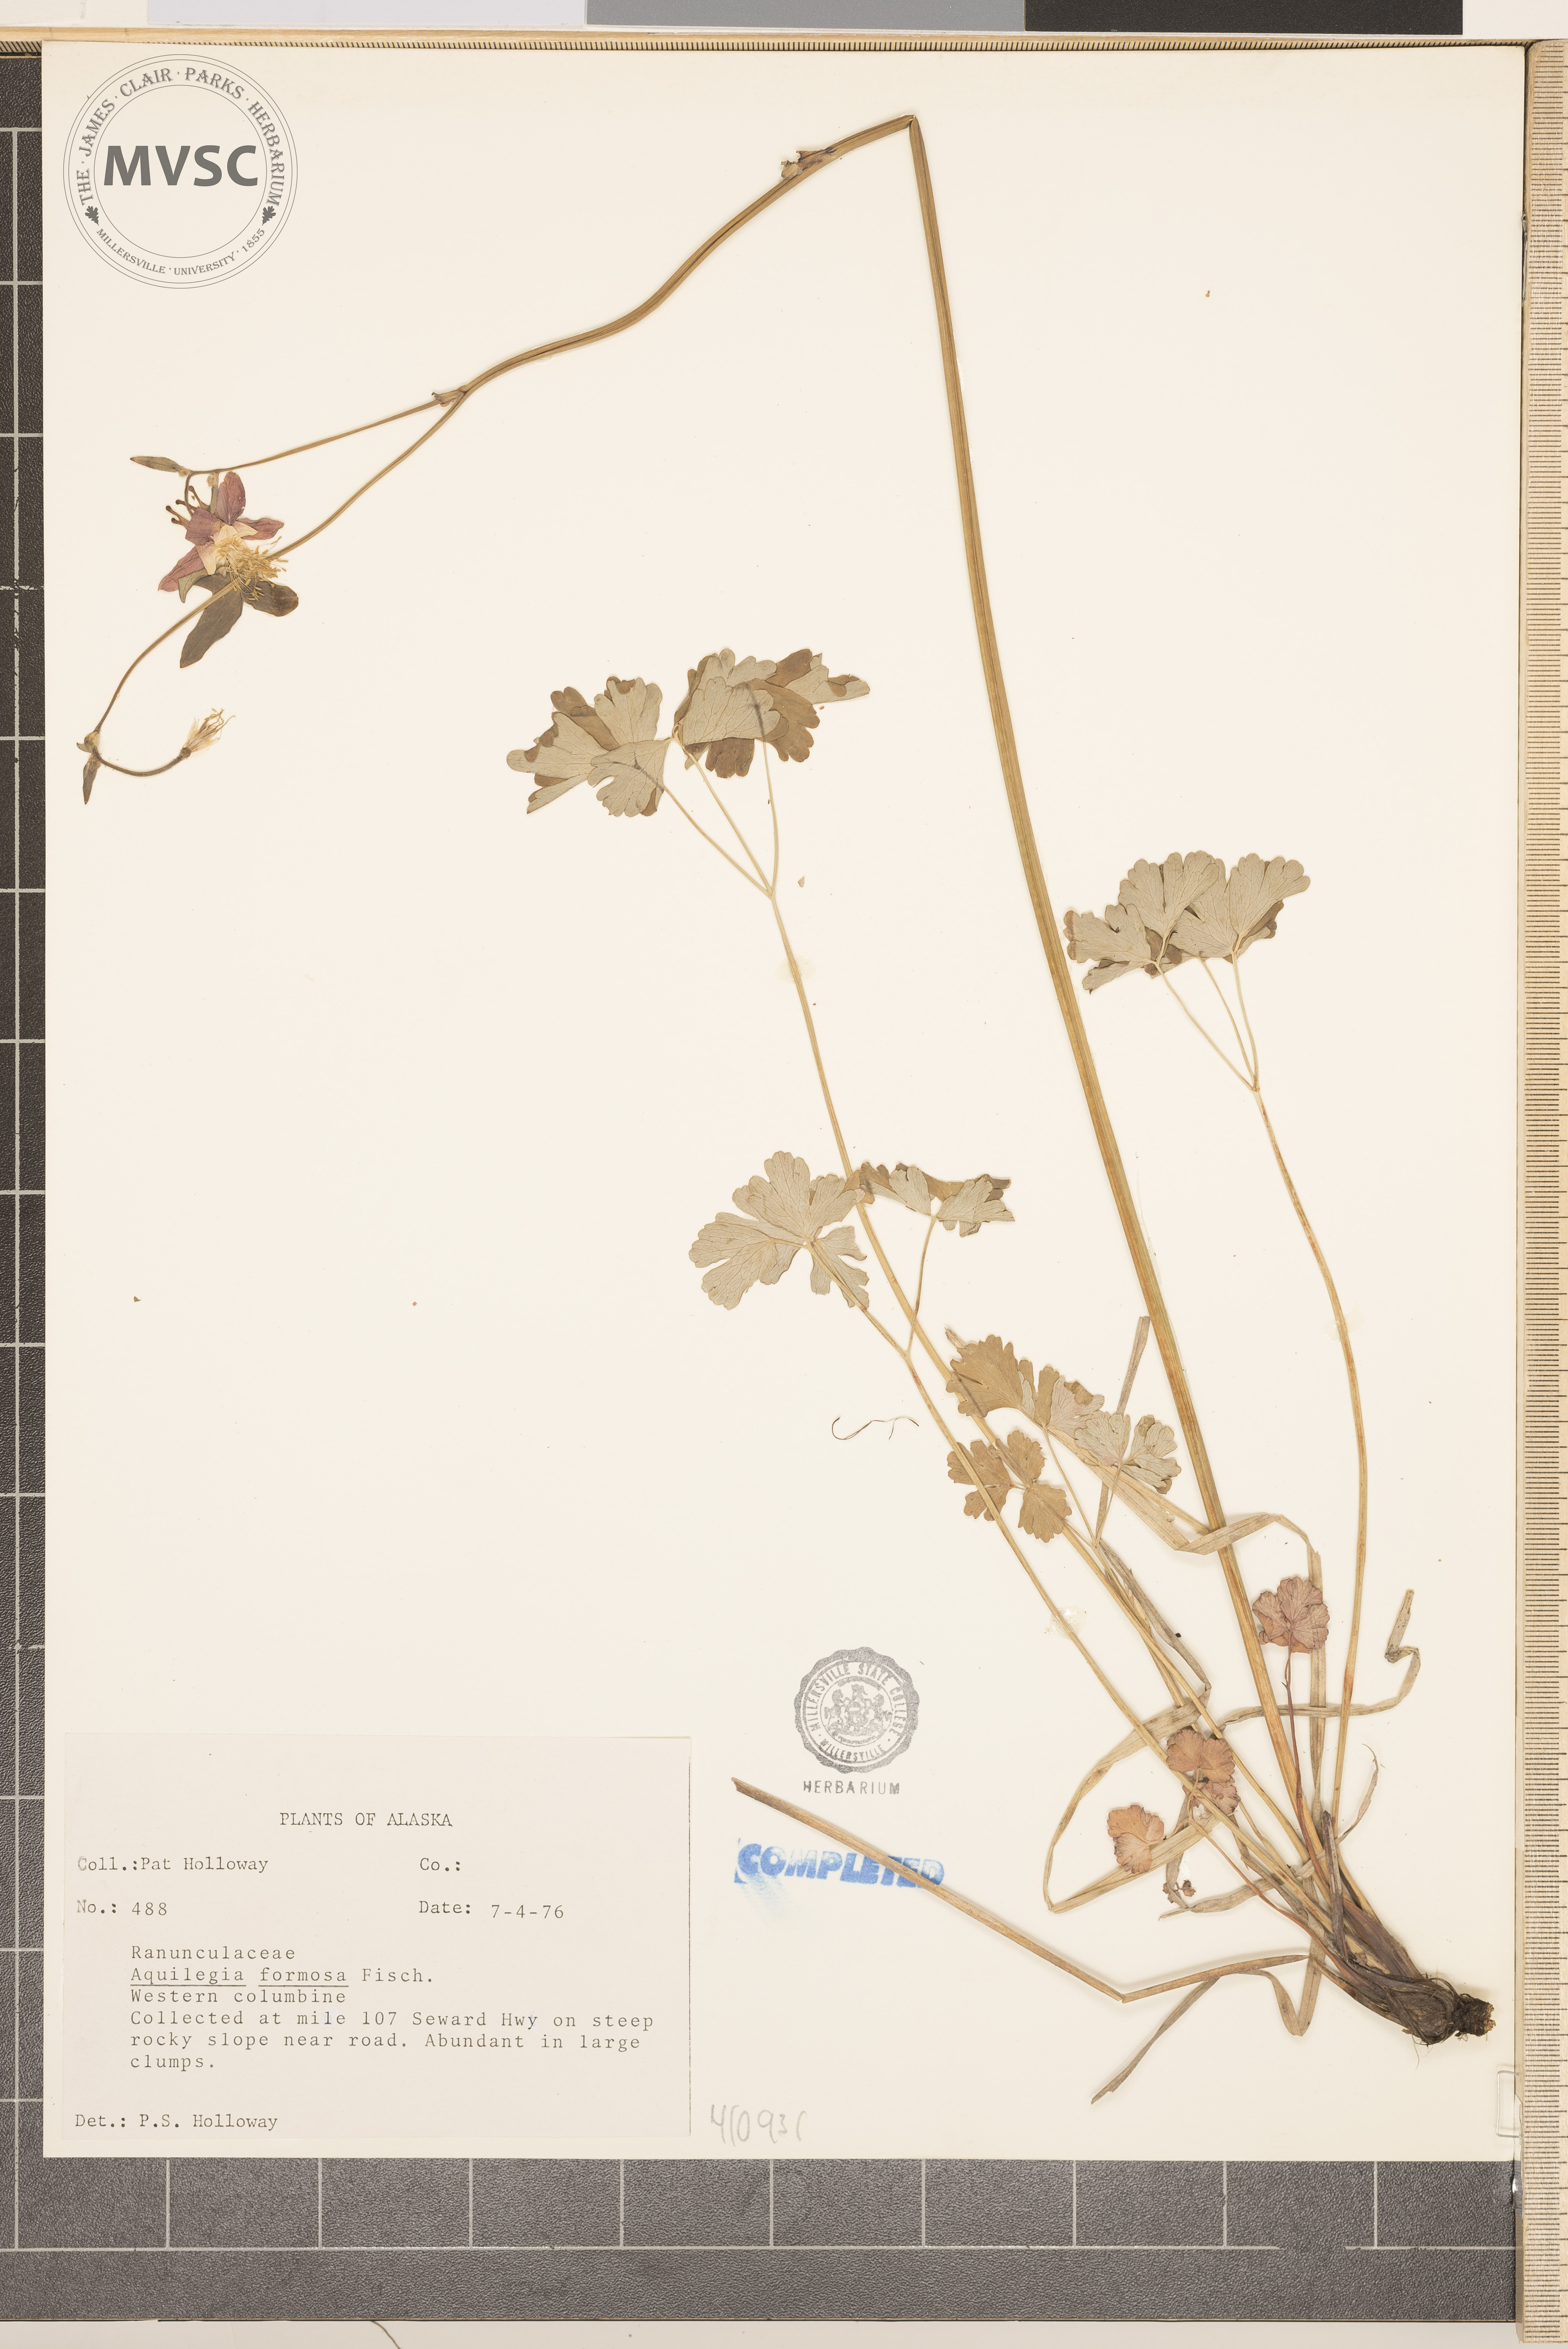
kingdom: Plantae
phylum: Tracheophyta
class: Magnoliopsida
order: Ranunculales
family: Ranunculaceae
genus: Aquilegia
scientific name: Aquilegia formosa
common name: Sitka columbine
